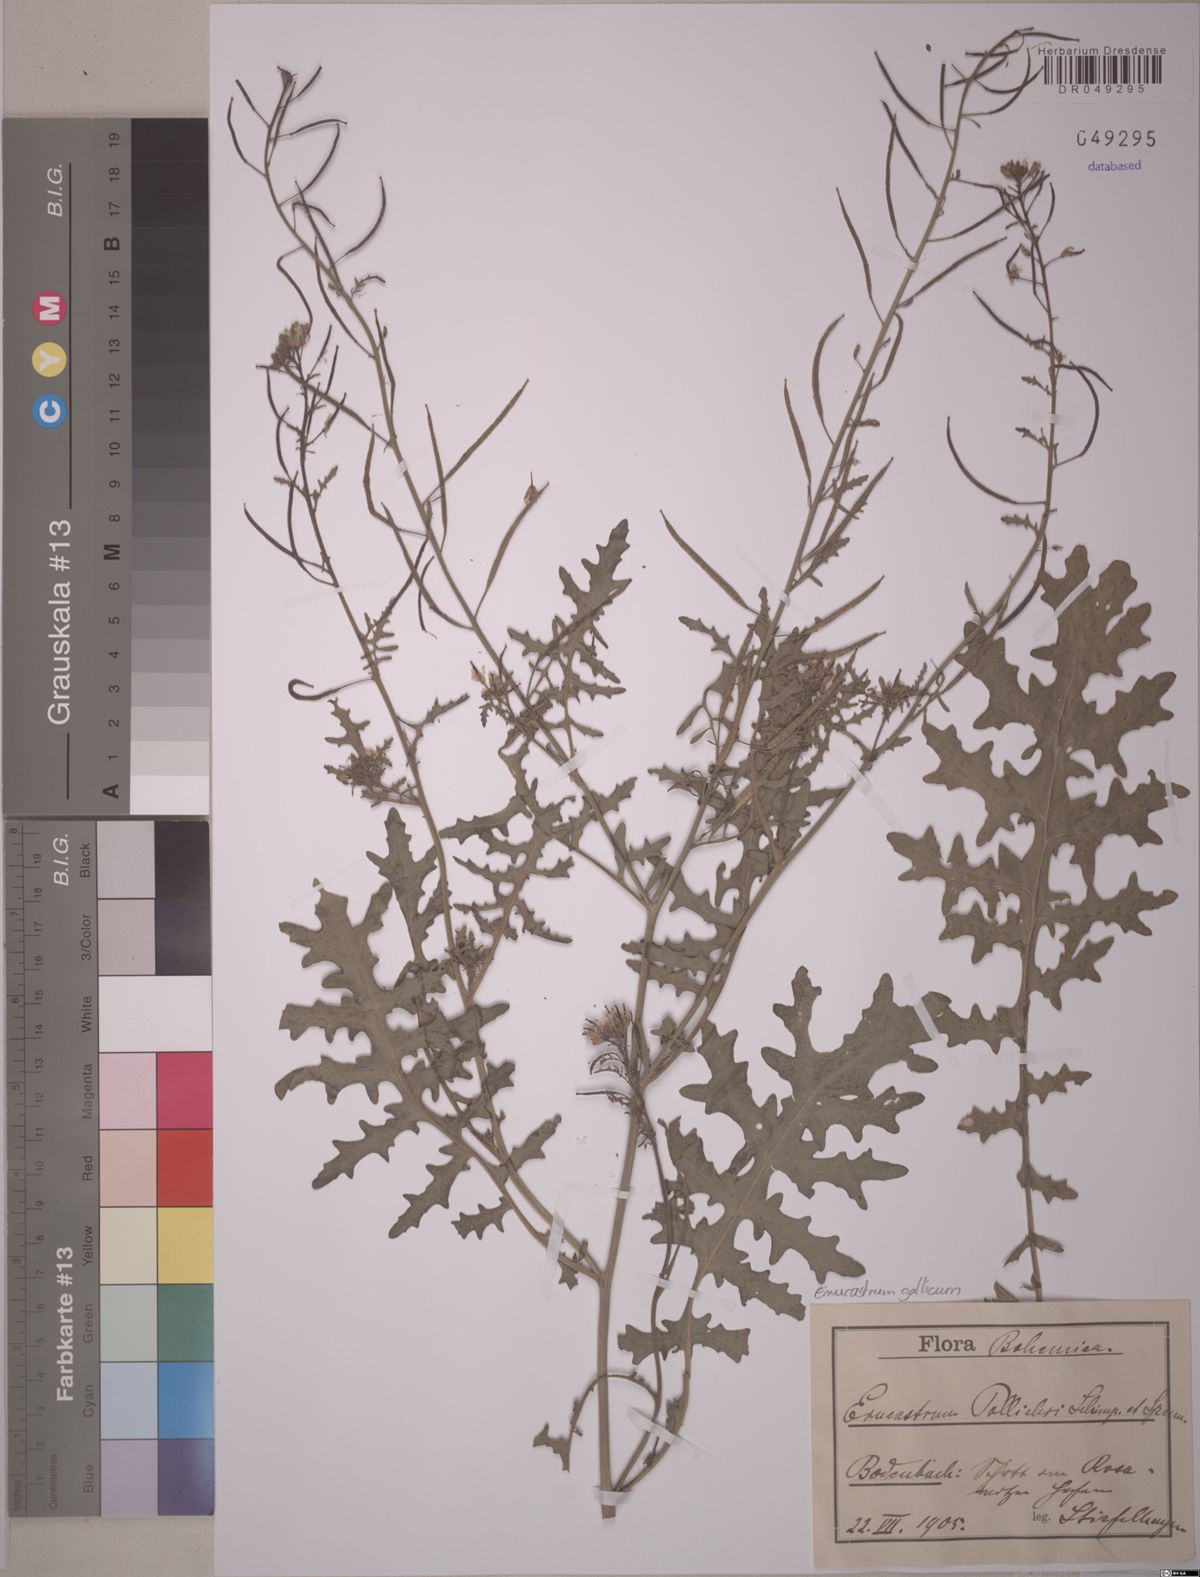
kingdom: Plantae
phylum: Tracheophyta
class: Magnoliopsida
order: Brassicales
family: Brassicaceae
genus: Erucastrum
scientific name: Erucastrum gallicum
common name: Hairy rocket
